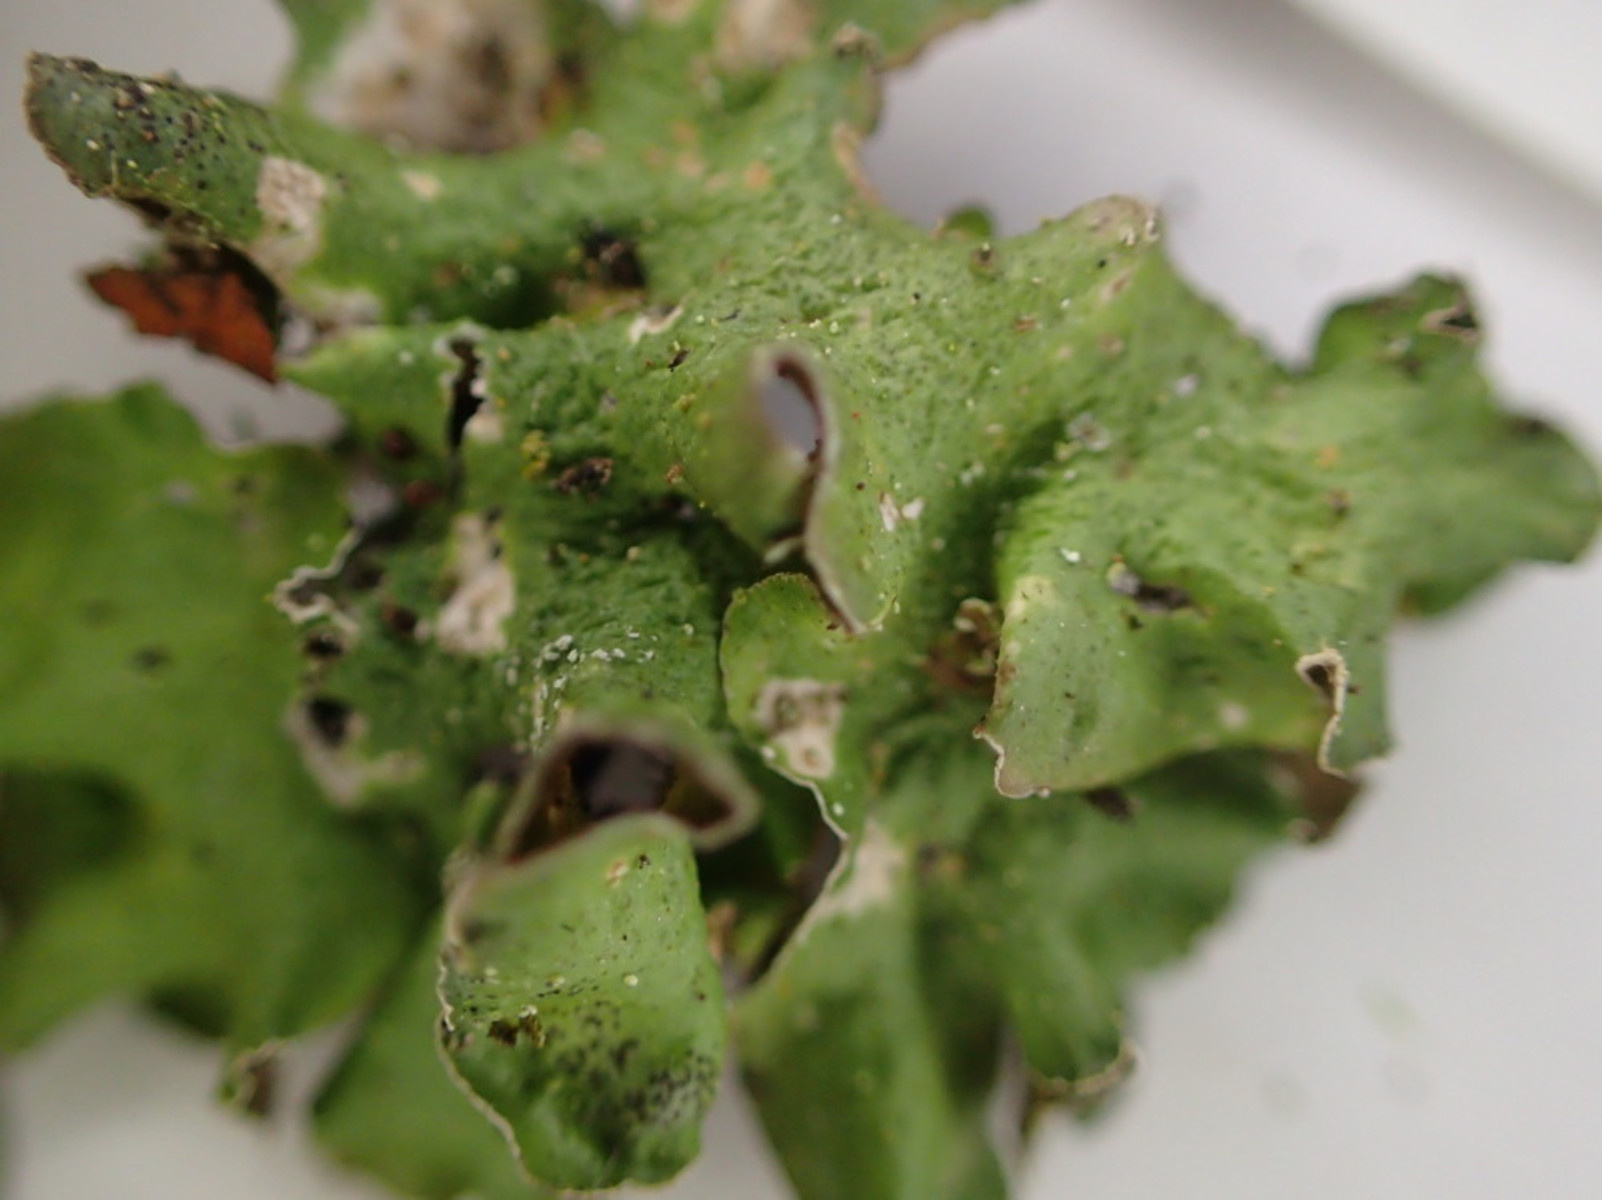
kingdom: Fungi
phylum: Ascomycota
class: Lecanoromycetes
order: Lecanorales
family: Parmeliaceae
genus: Pleurosticta
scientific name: Pleurosticta acetabulum
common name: stor skållav
